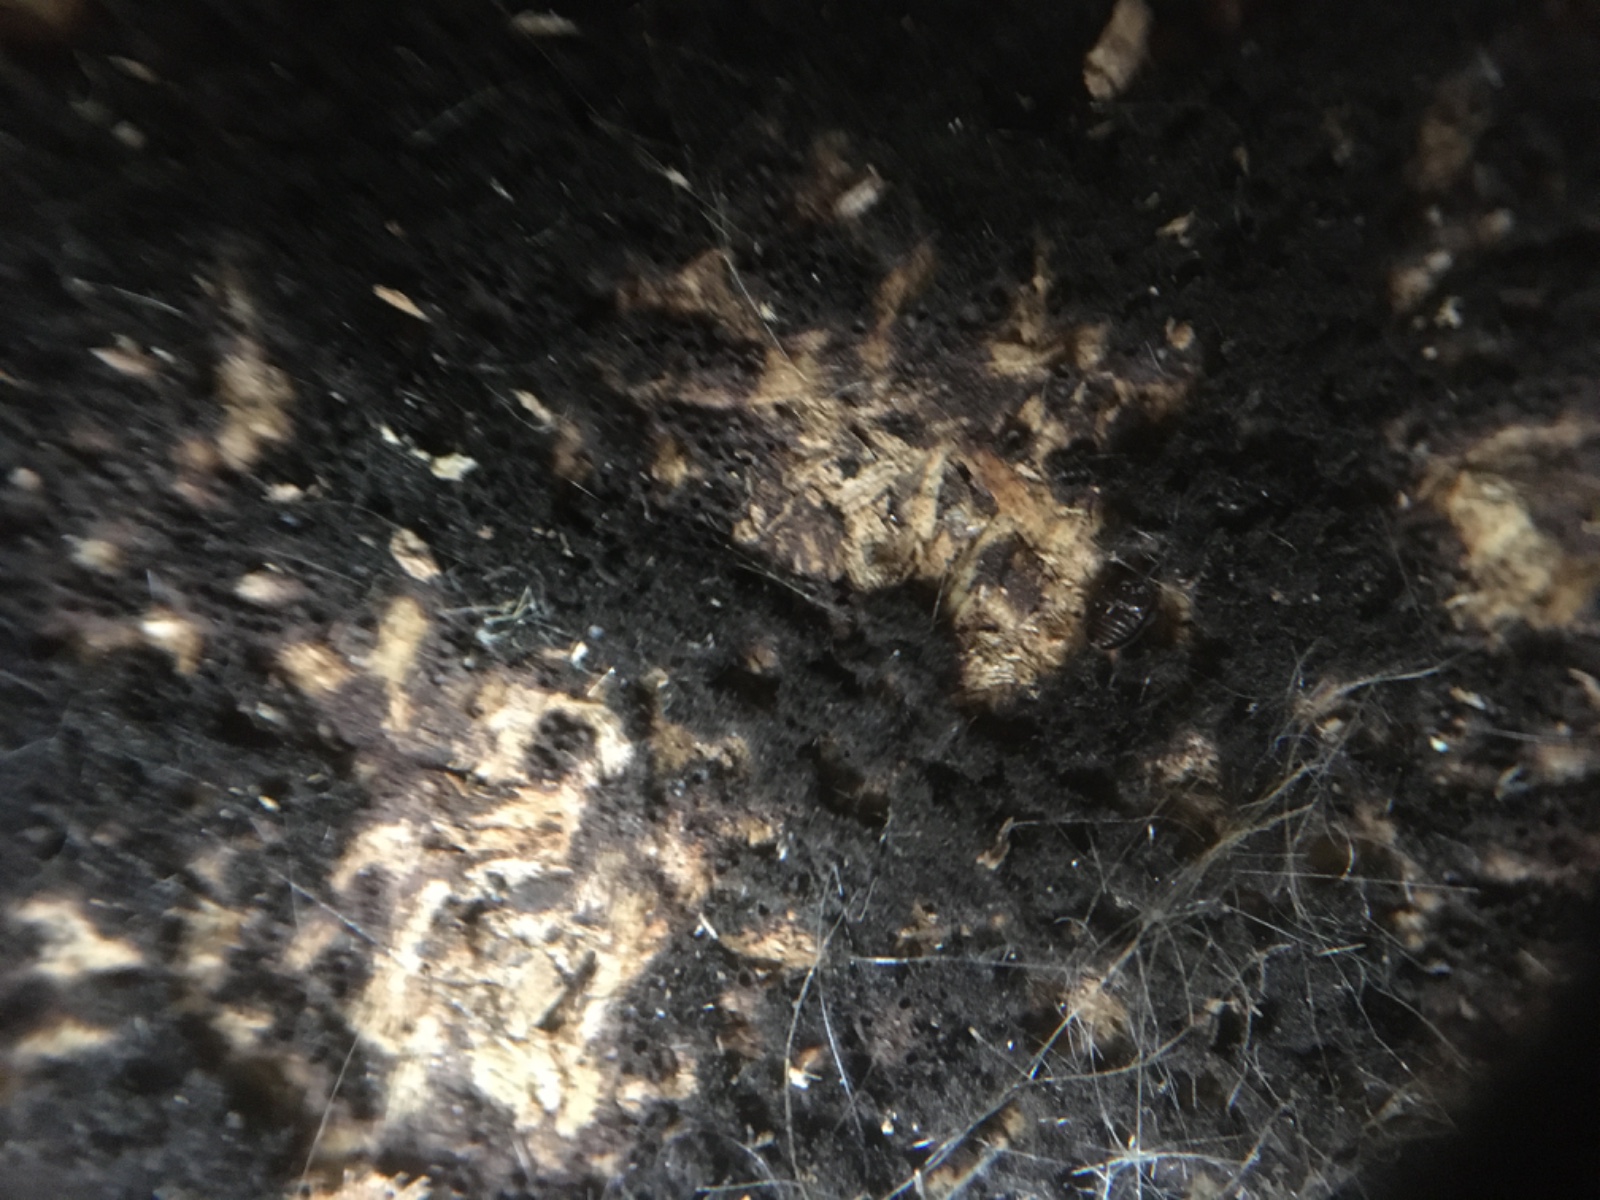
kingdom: Fungi
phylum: Ascomycota
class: Sordariomycetes
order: Sordariales
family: Chaetomiaceae
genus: Chaetomium
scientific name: Chaetomium elatum
